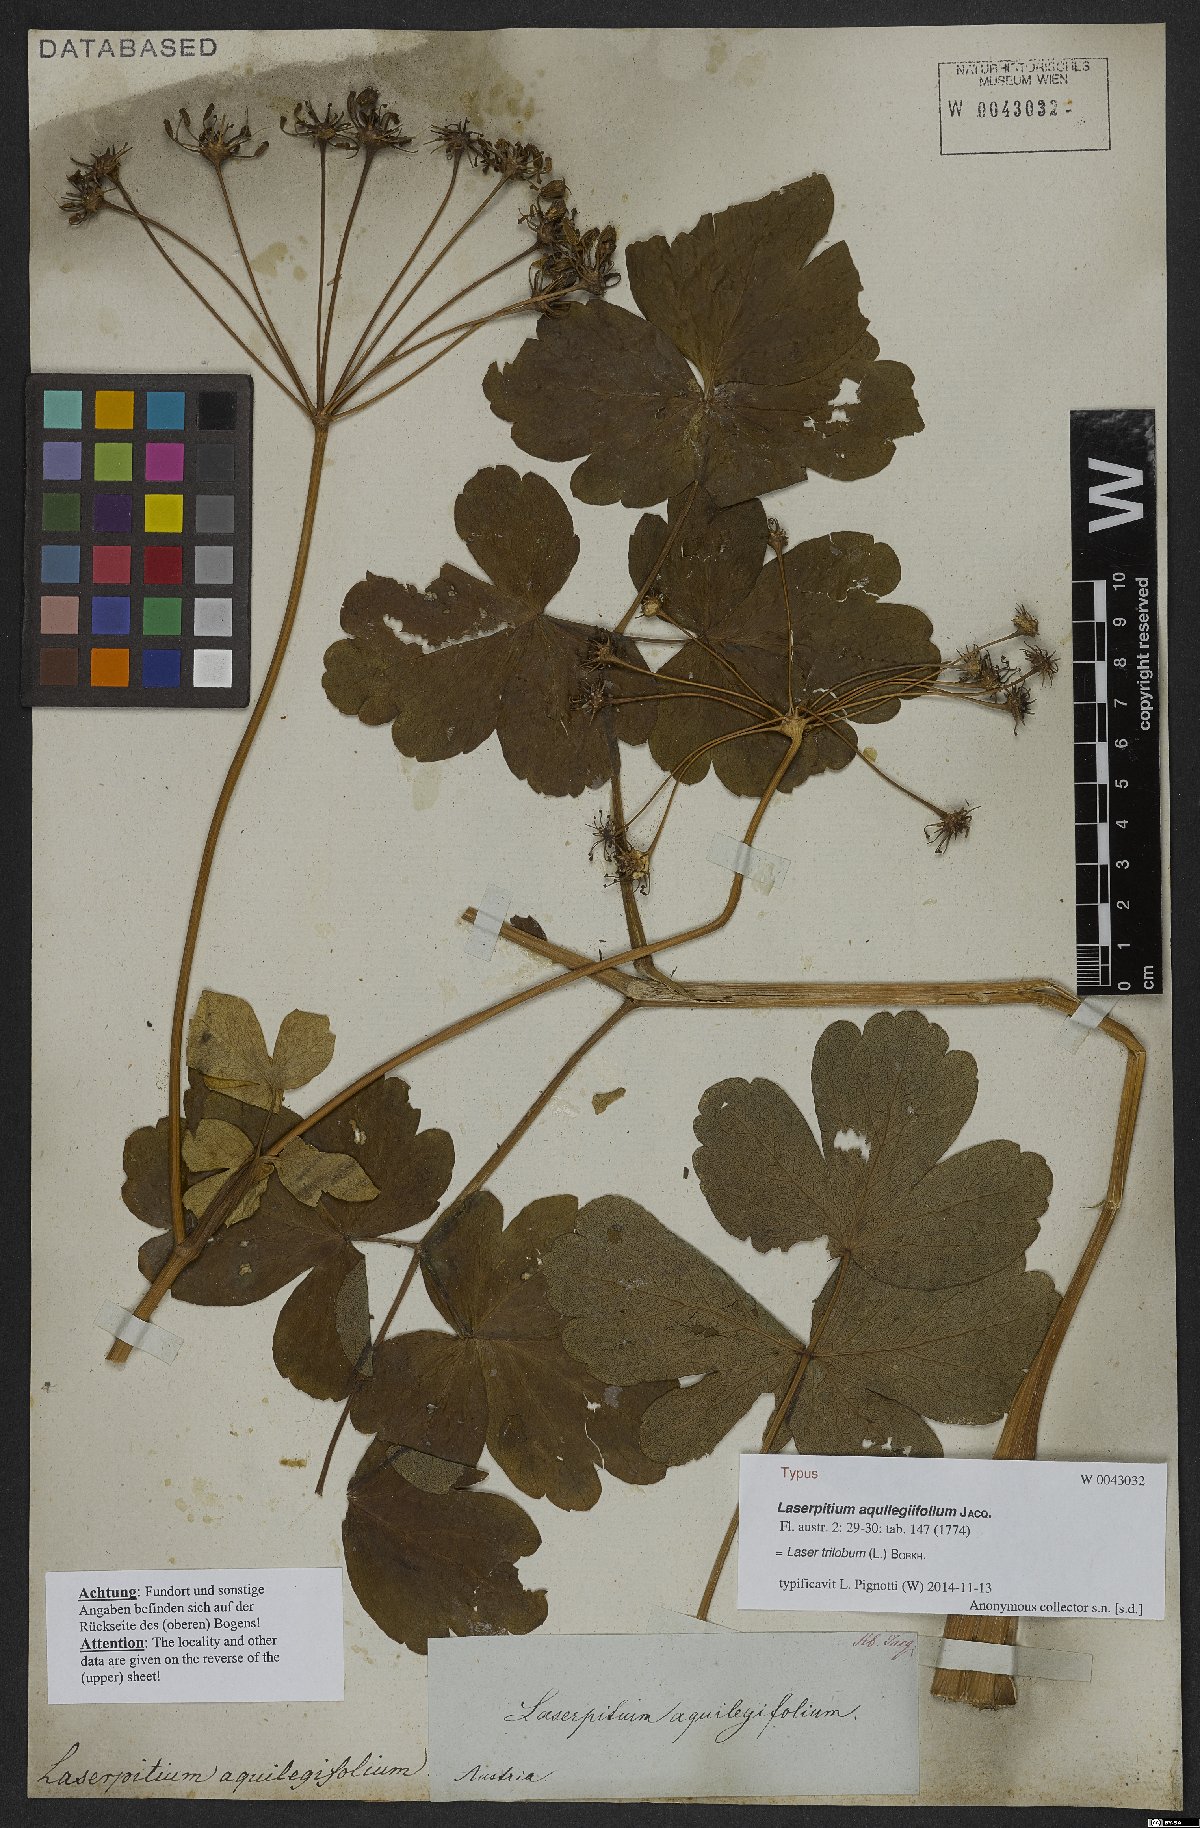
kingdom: Plantae
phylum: Tracheophyta
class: Magnoliopsida
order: Apiales
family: Apiaceae
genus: Laser
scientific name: Laser trilobum
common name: Laser
